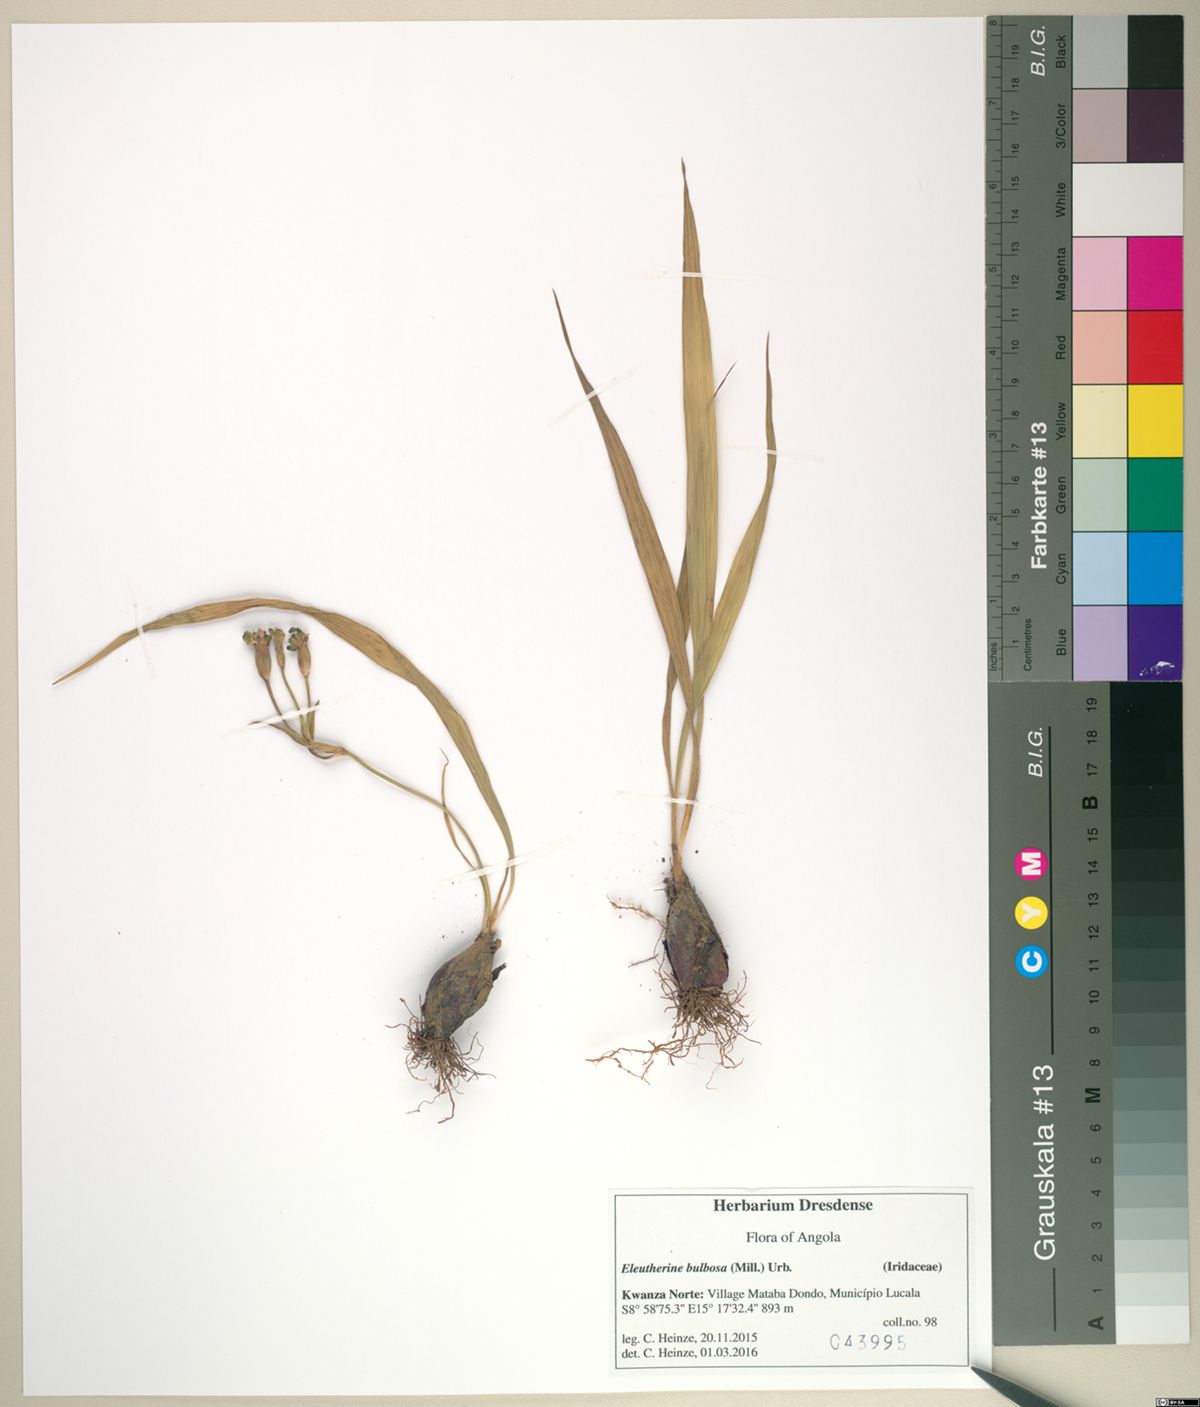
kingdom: Plantae
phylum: Tracheophyta
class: Liliopsida
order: Asparagales
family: Iridaceae
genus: Eleutherine
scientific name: Eleutherine bulbosa
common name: Lagrimas de la virgen
